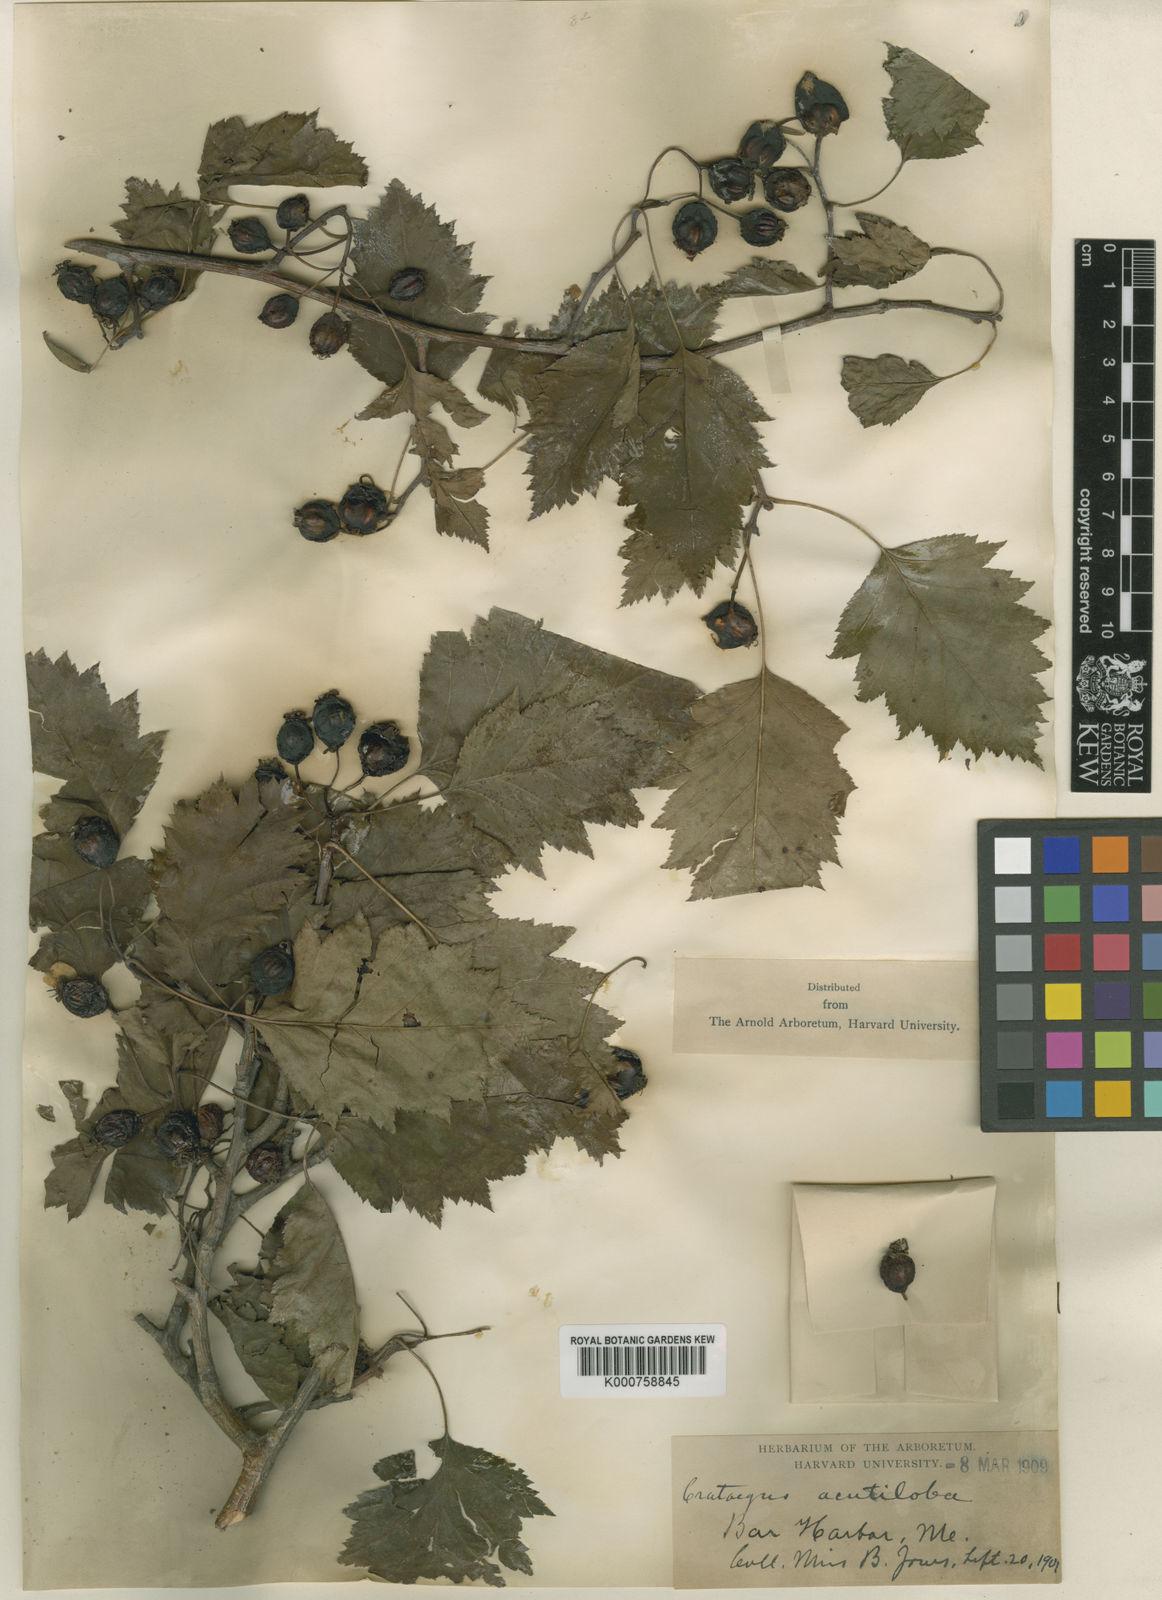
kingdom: Plantae
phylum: Tracheophyta
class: Magnoliopsida
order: Rosales
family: Rosaceae
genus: Crataegus
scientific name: Crataegus macrosperma
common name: Variable hawthorn
